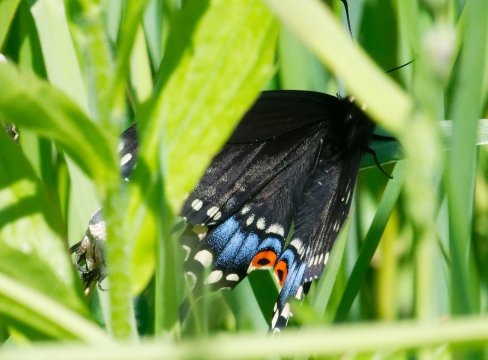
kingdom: Animalia
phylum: Arthropoda
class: Insecta
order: Lepidoptera
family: Papilionidae
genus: Papilio
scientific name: Papilio polyxenes
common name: Black Swallowtail
